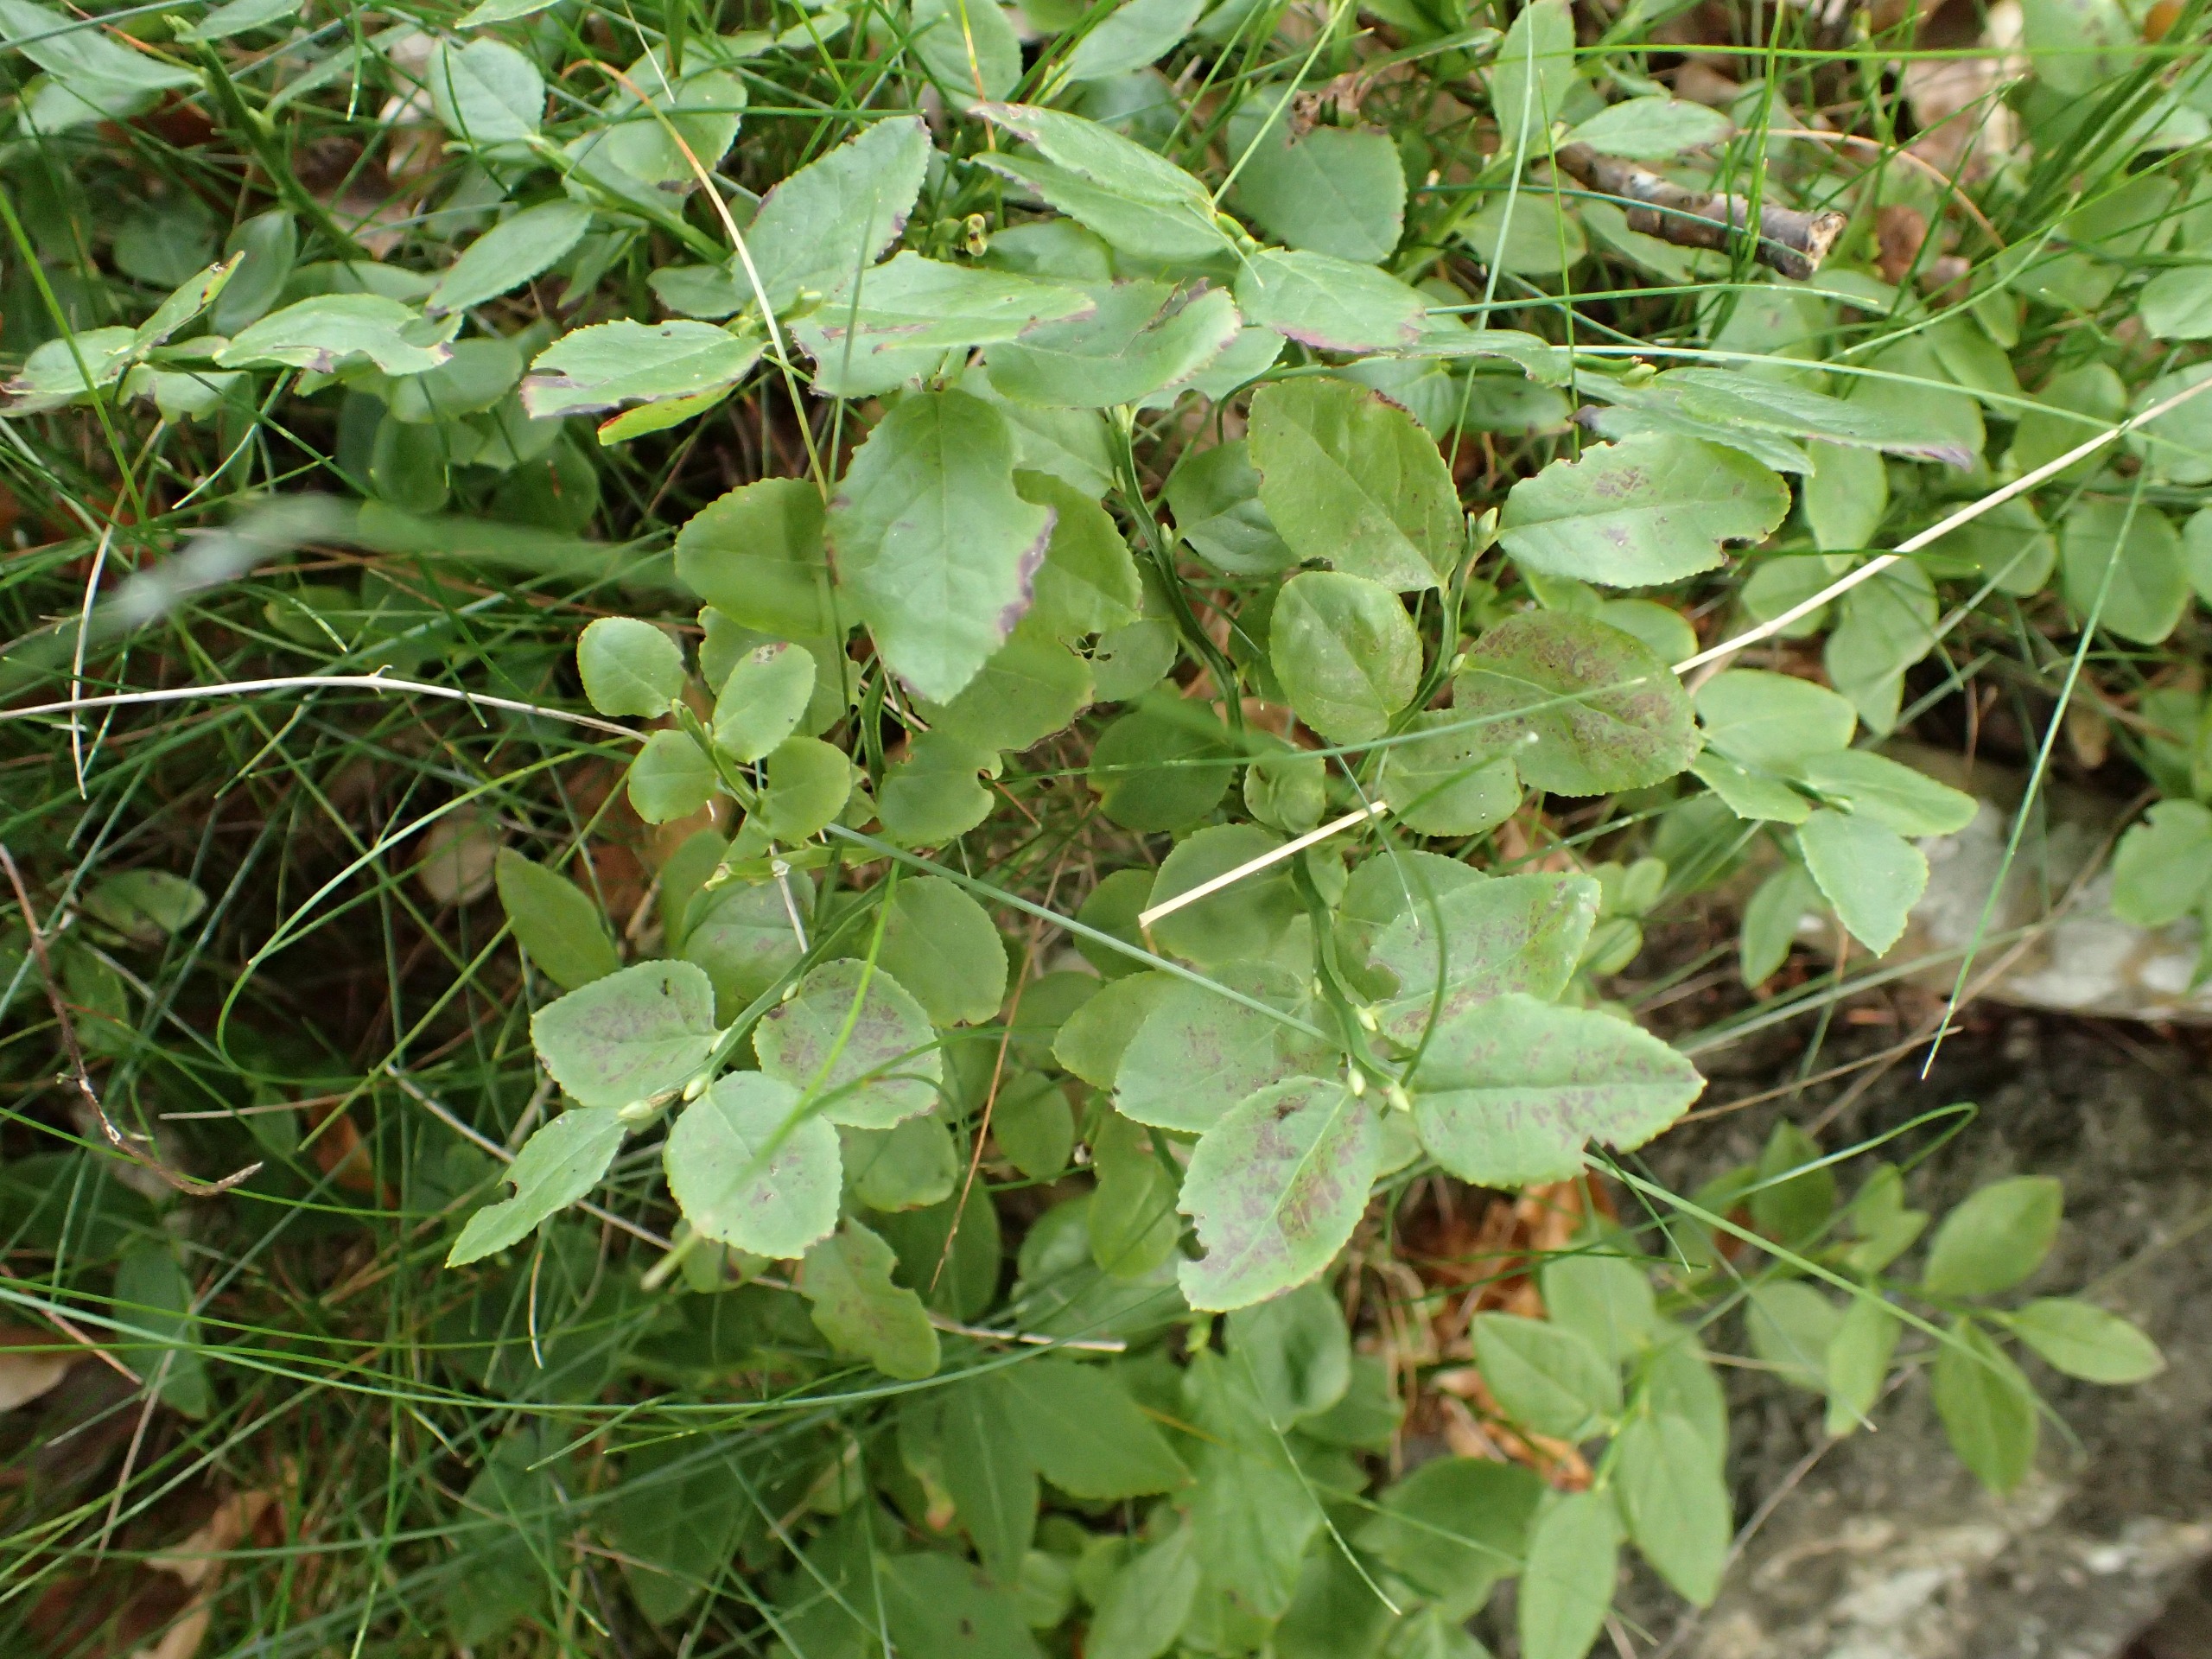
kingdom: Plantae
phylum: Tracheophyta
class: Magnoliopsida
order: Ericales
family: Ericaceae
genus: Vaccinium
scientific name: Vaccinium myrtillus
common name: Blåbær
